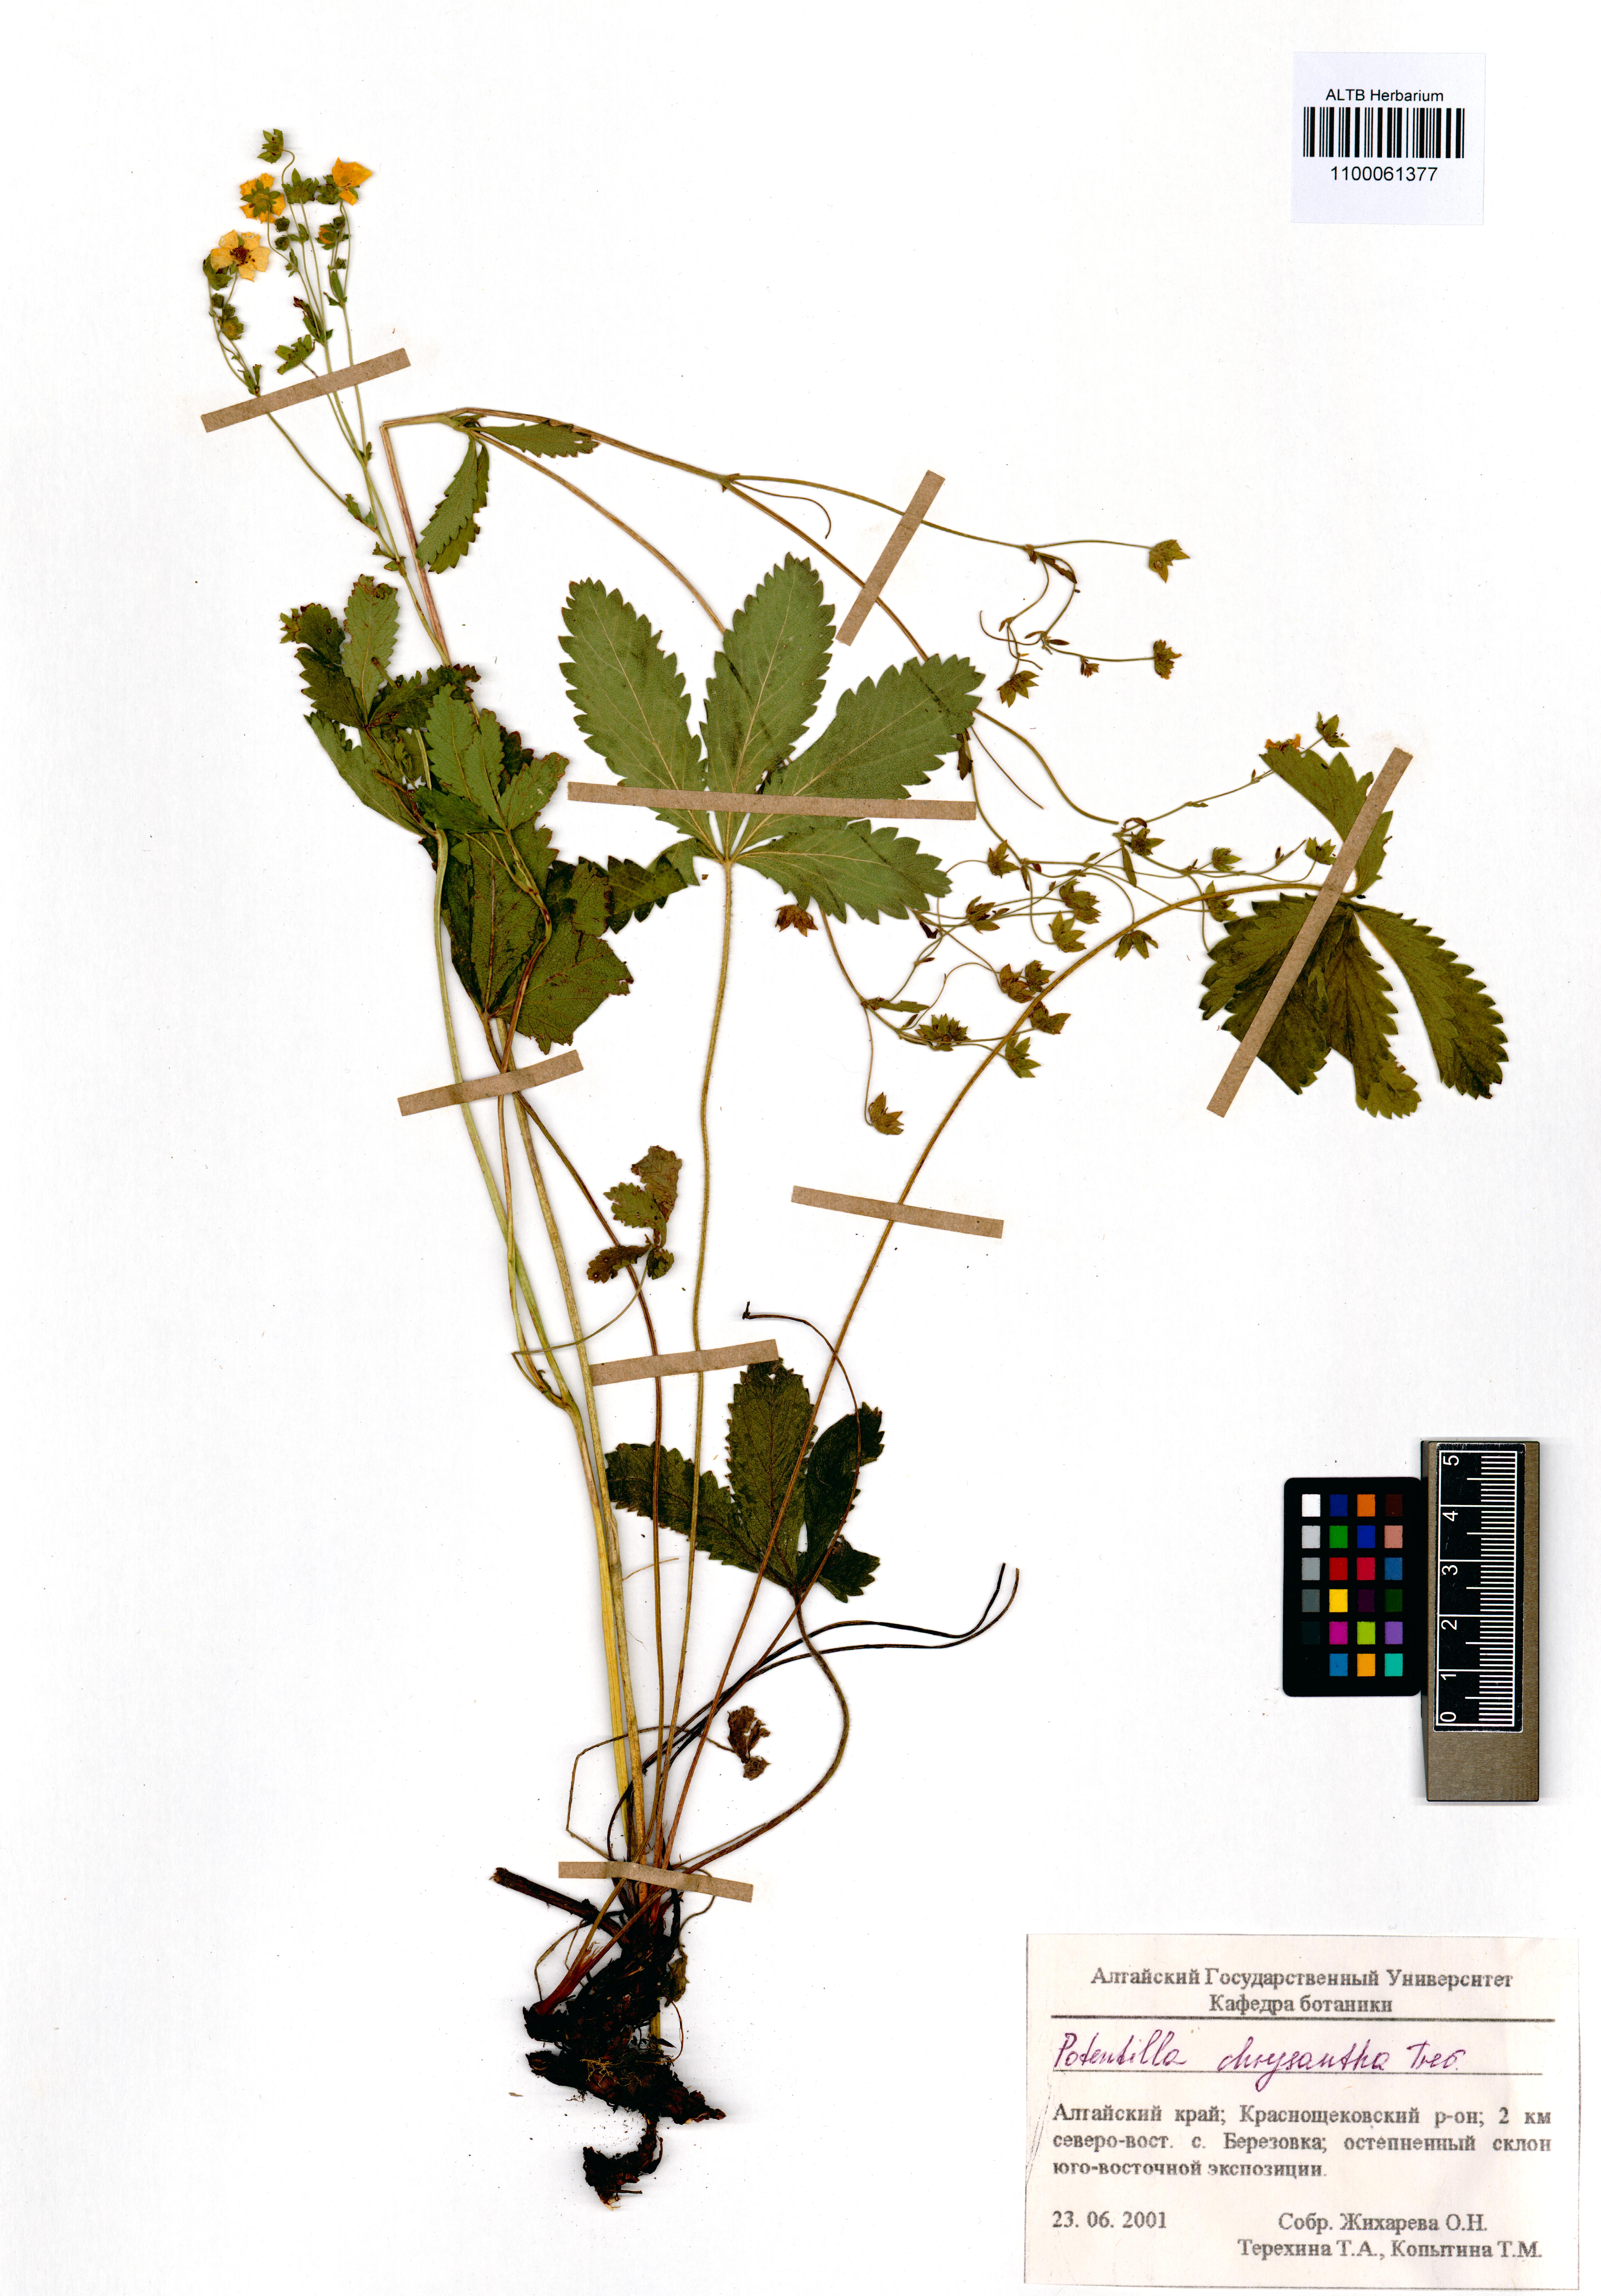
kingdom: Plantae
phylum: Tracheophyta
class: Magnoliopsida
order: Rosales
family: Rosaceae
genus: Potentilla
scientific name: Potentilla chrysantha
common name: Thuringian cinquefoil
